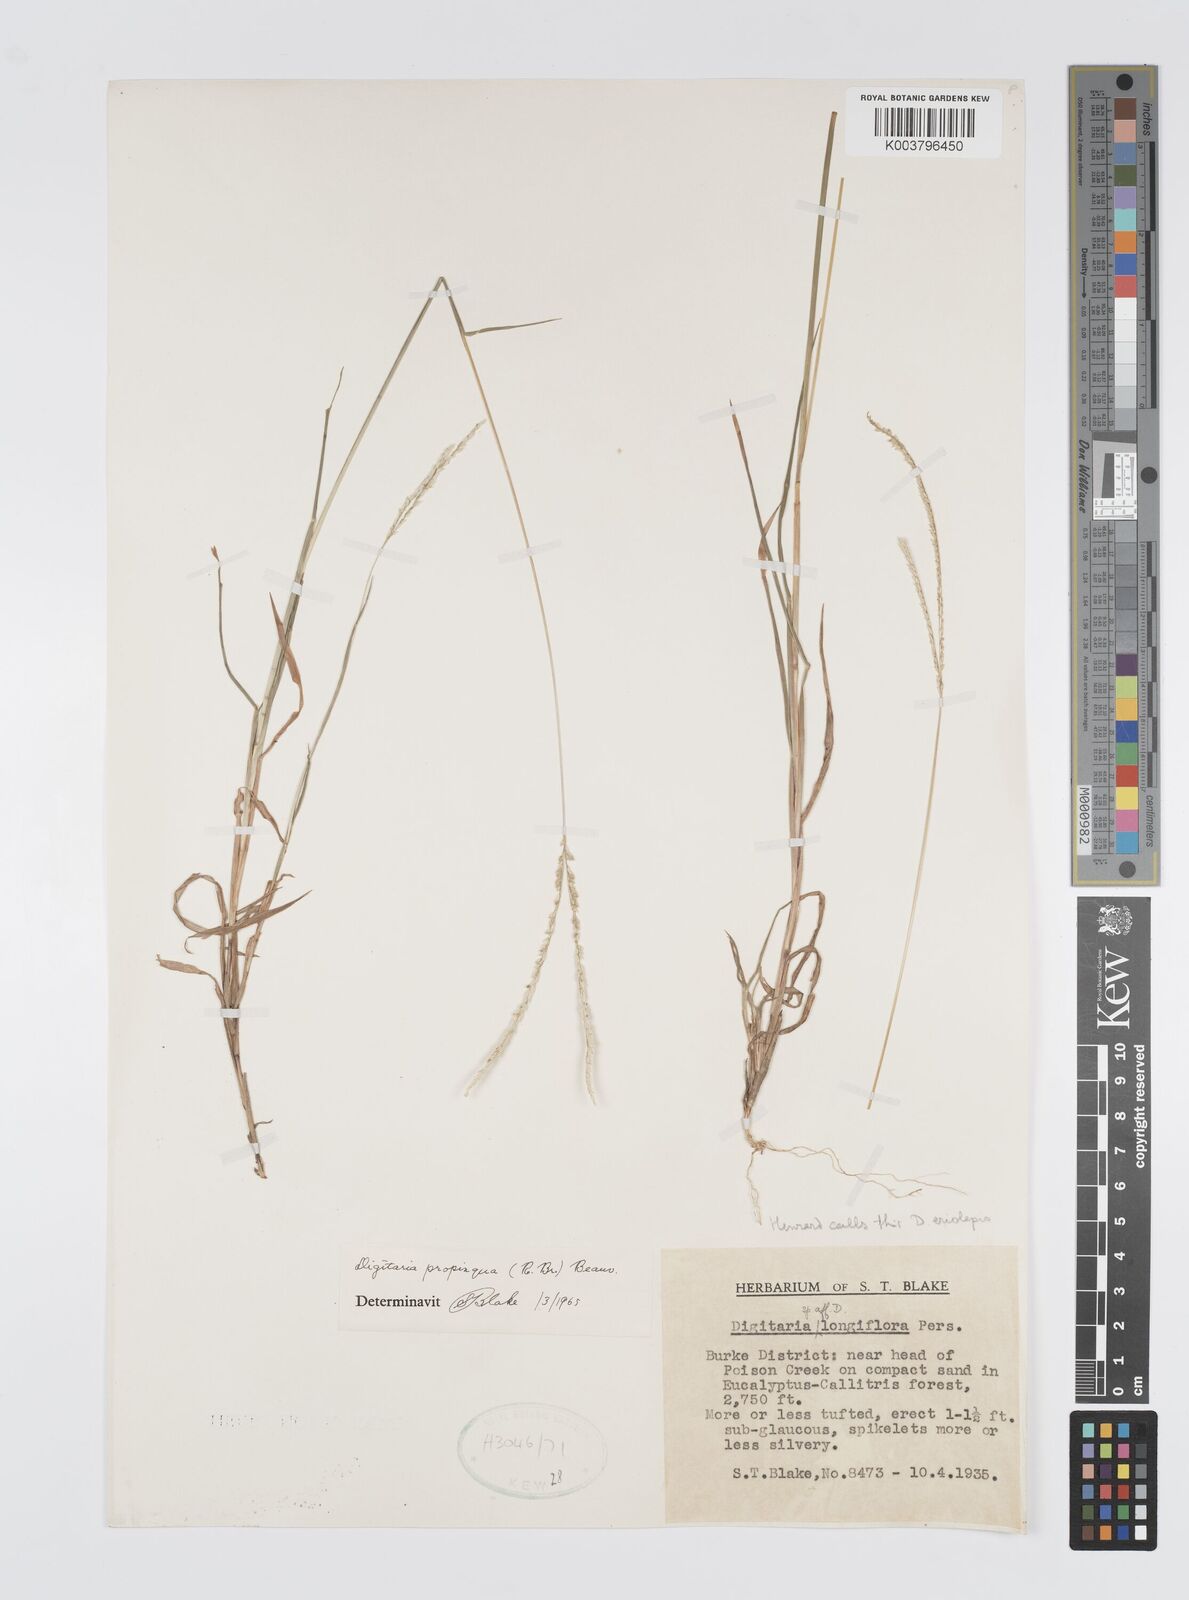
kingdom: Plantae
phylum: Tracheophyta
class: Liliopsida
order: Poales
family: Poaceae
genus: Digitaria
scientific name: Digitaria longiflora
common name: Wire crabgrass
